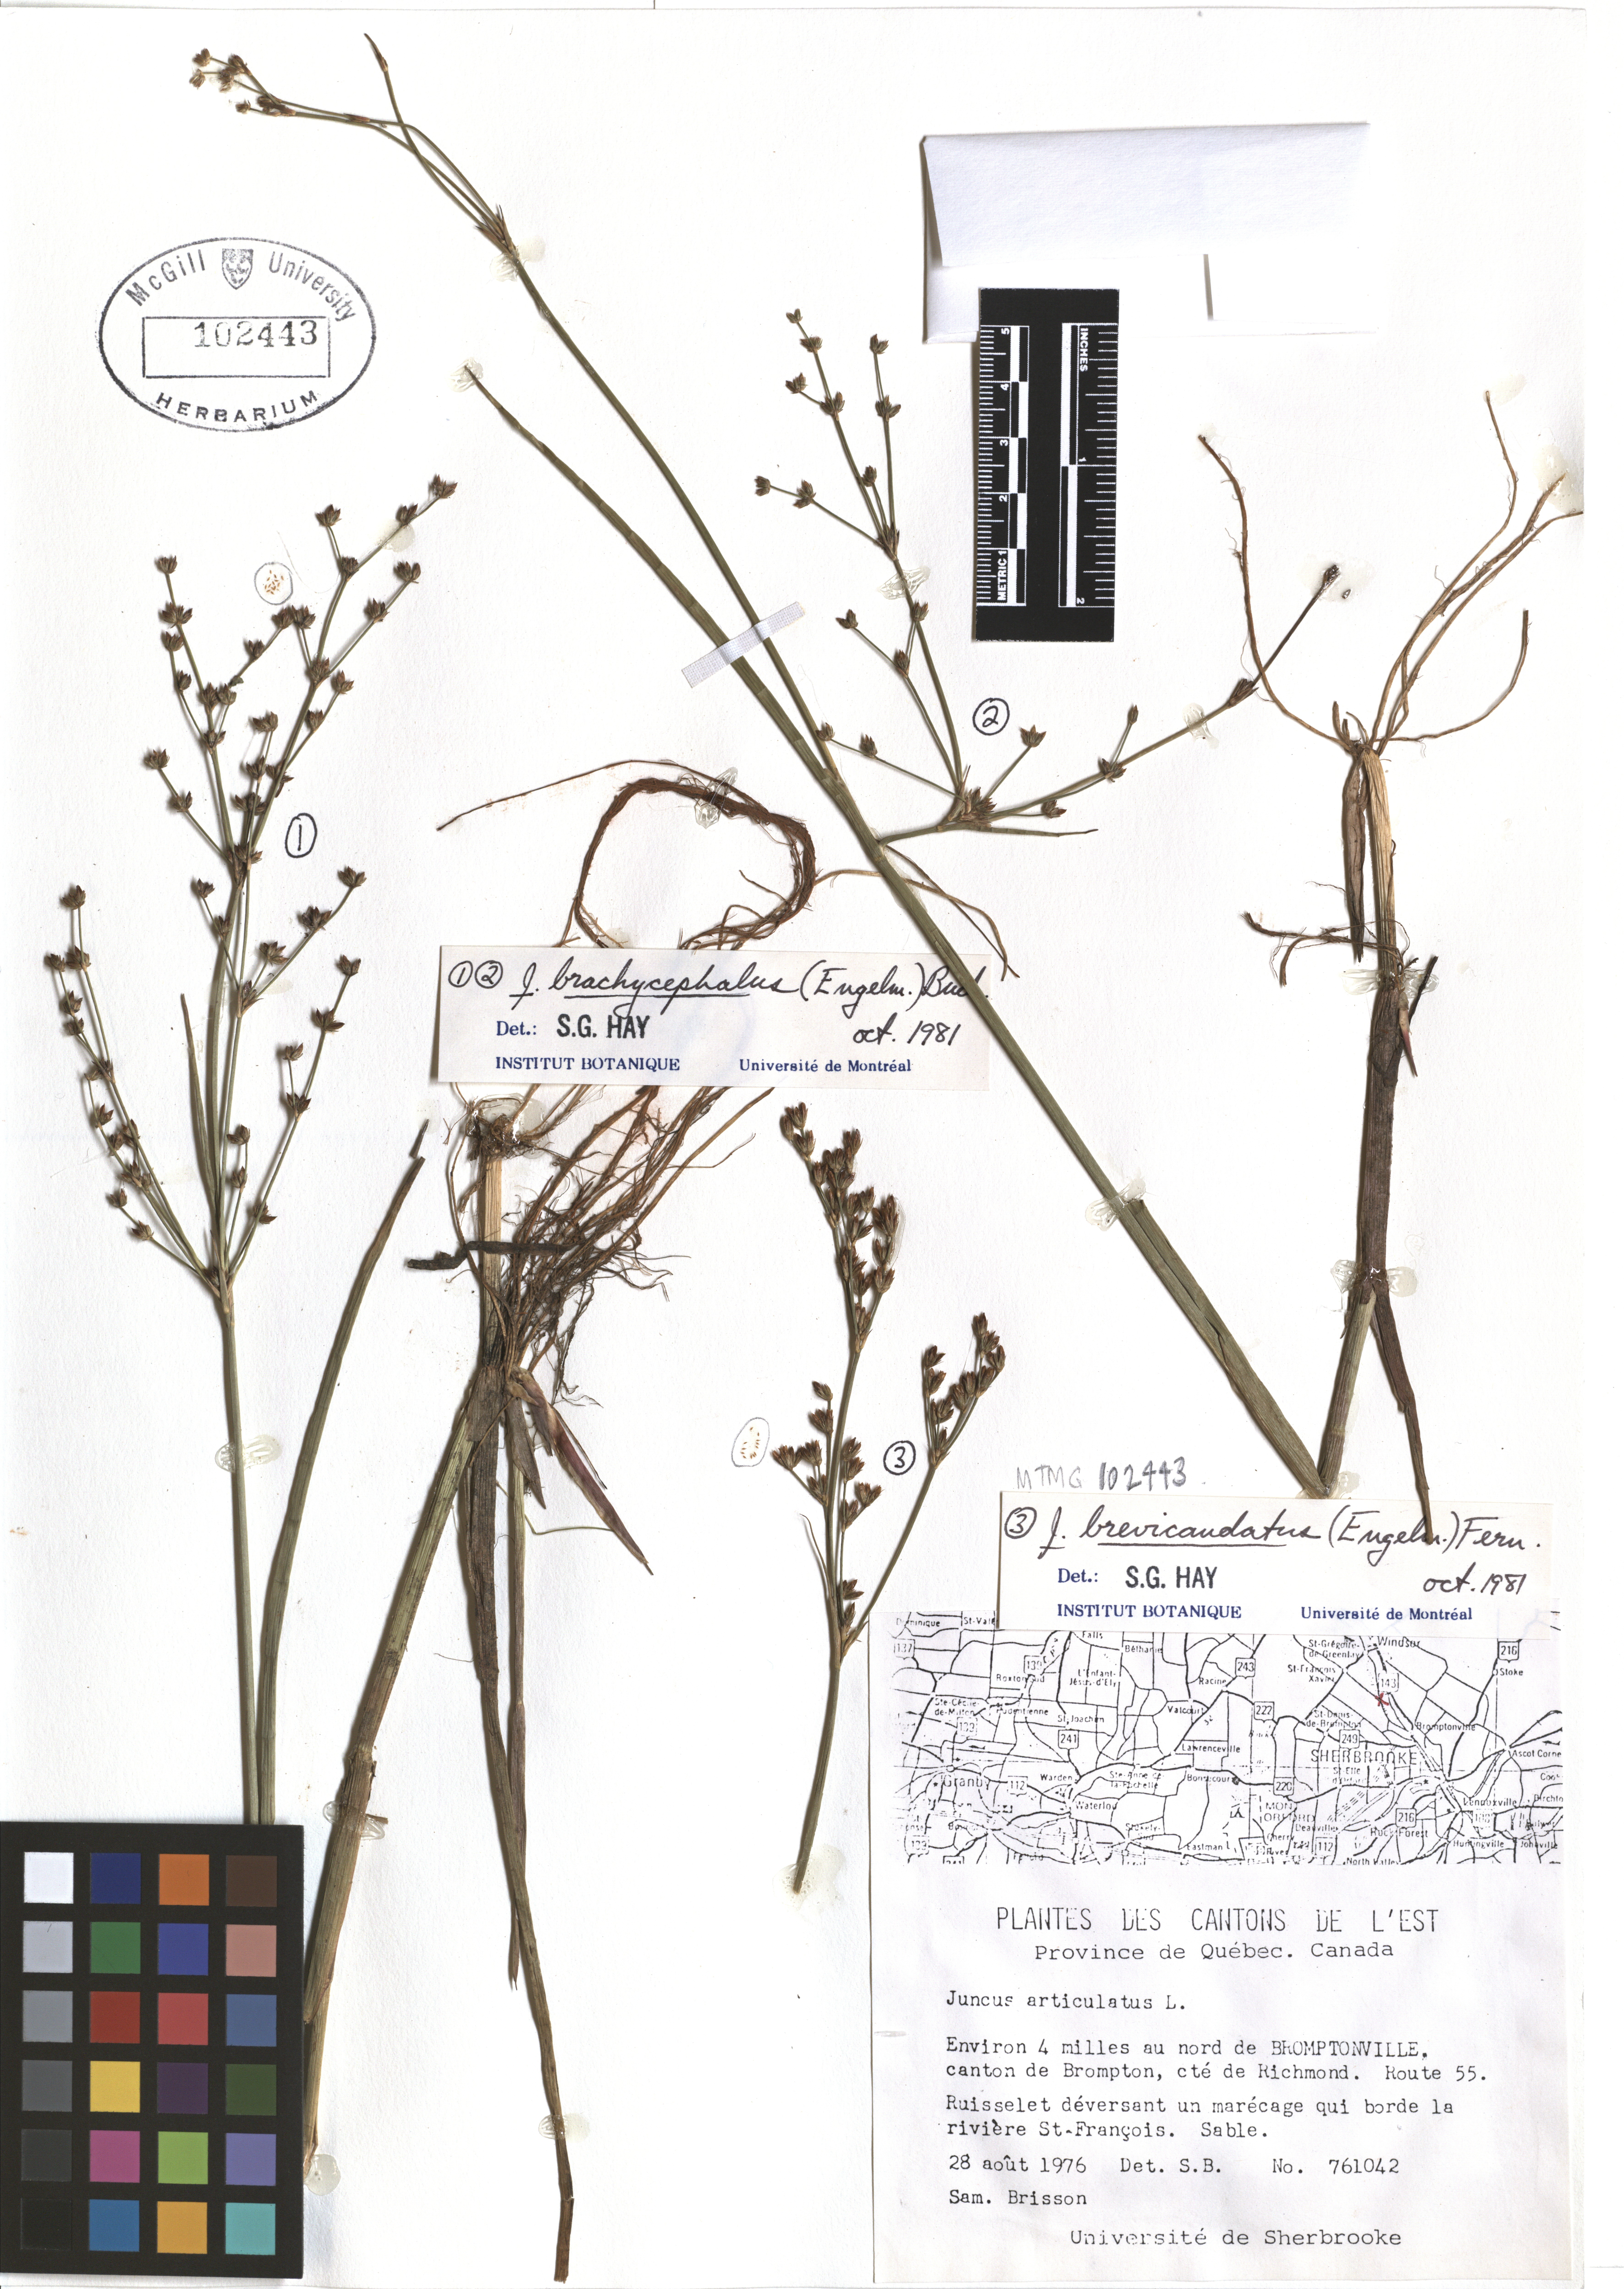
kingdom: Plantae
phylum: Tracheophyta
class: Liliopsida
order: Poales
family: Juncaceae
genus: Juncus
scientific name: Juncus brachycephalus
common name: Short-headed rush
